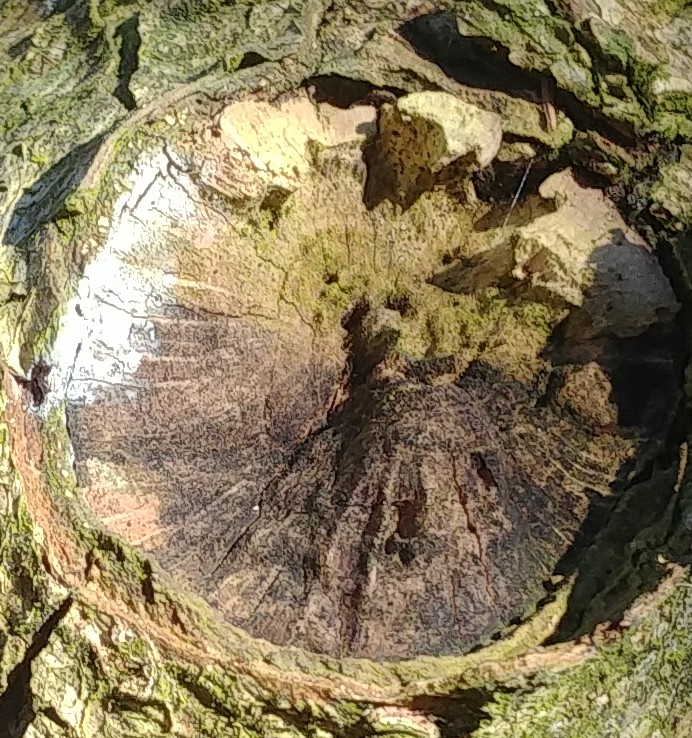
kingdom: Fungi
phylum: Basidiomycota
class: Agaricomycetes
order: Auriculariales
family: Auriculariaceae
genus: Exidia
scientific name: Exidia glandulosa
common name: ege-bævretop
